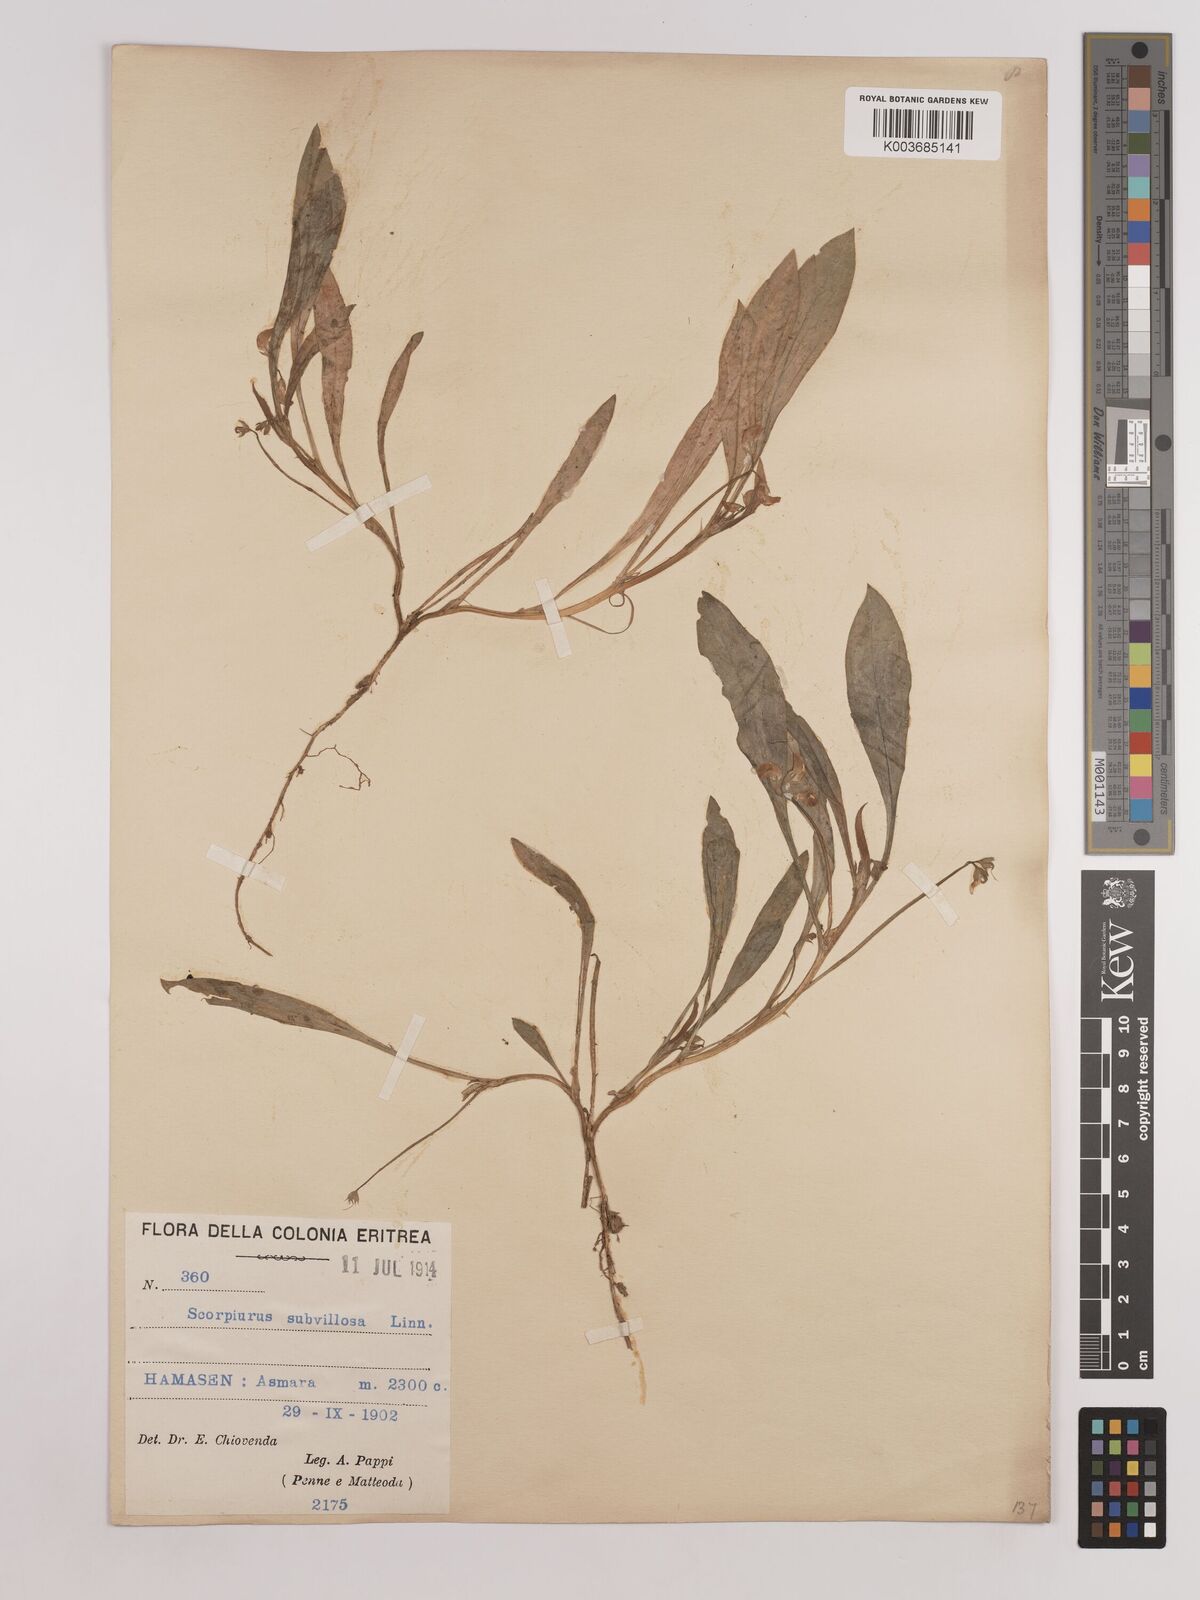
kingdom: Plantae
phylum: Tracheophyta
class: Magnoliopsida
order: Fabales
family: Fabaceae
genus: Scorpiurus
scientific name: Scorpiurus muricatus
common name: Caterpillar-plant
